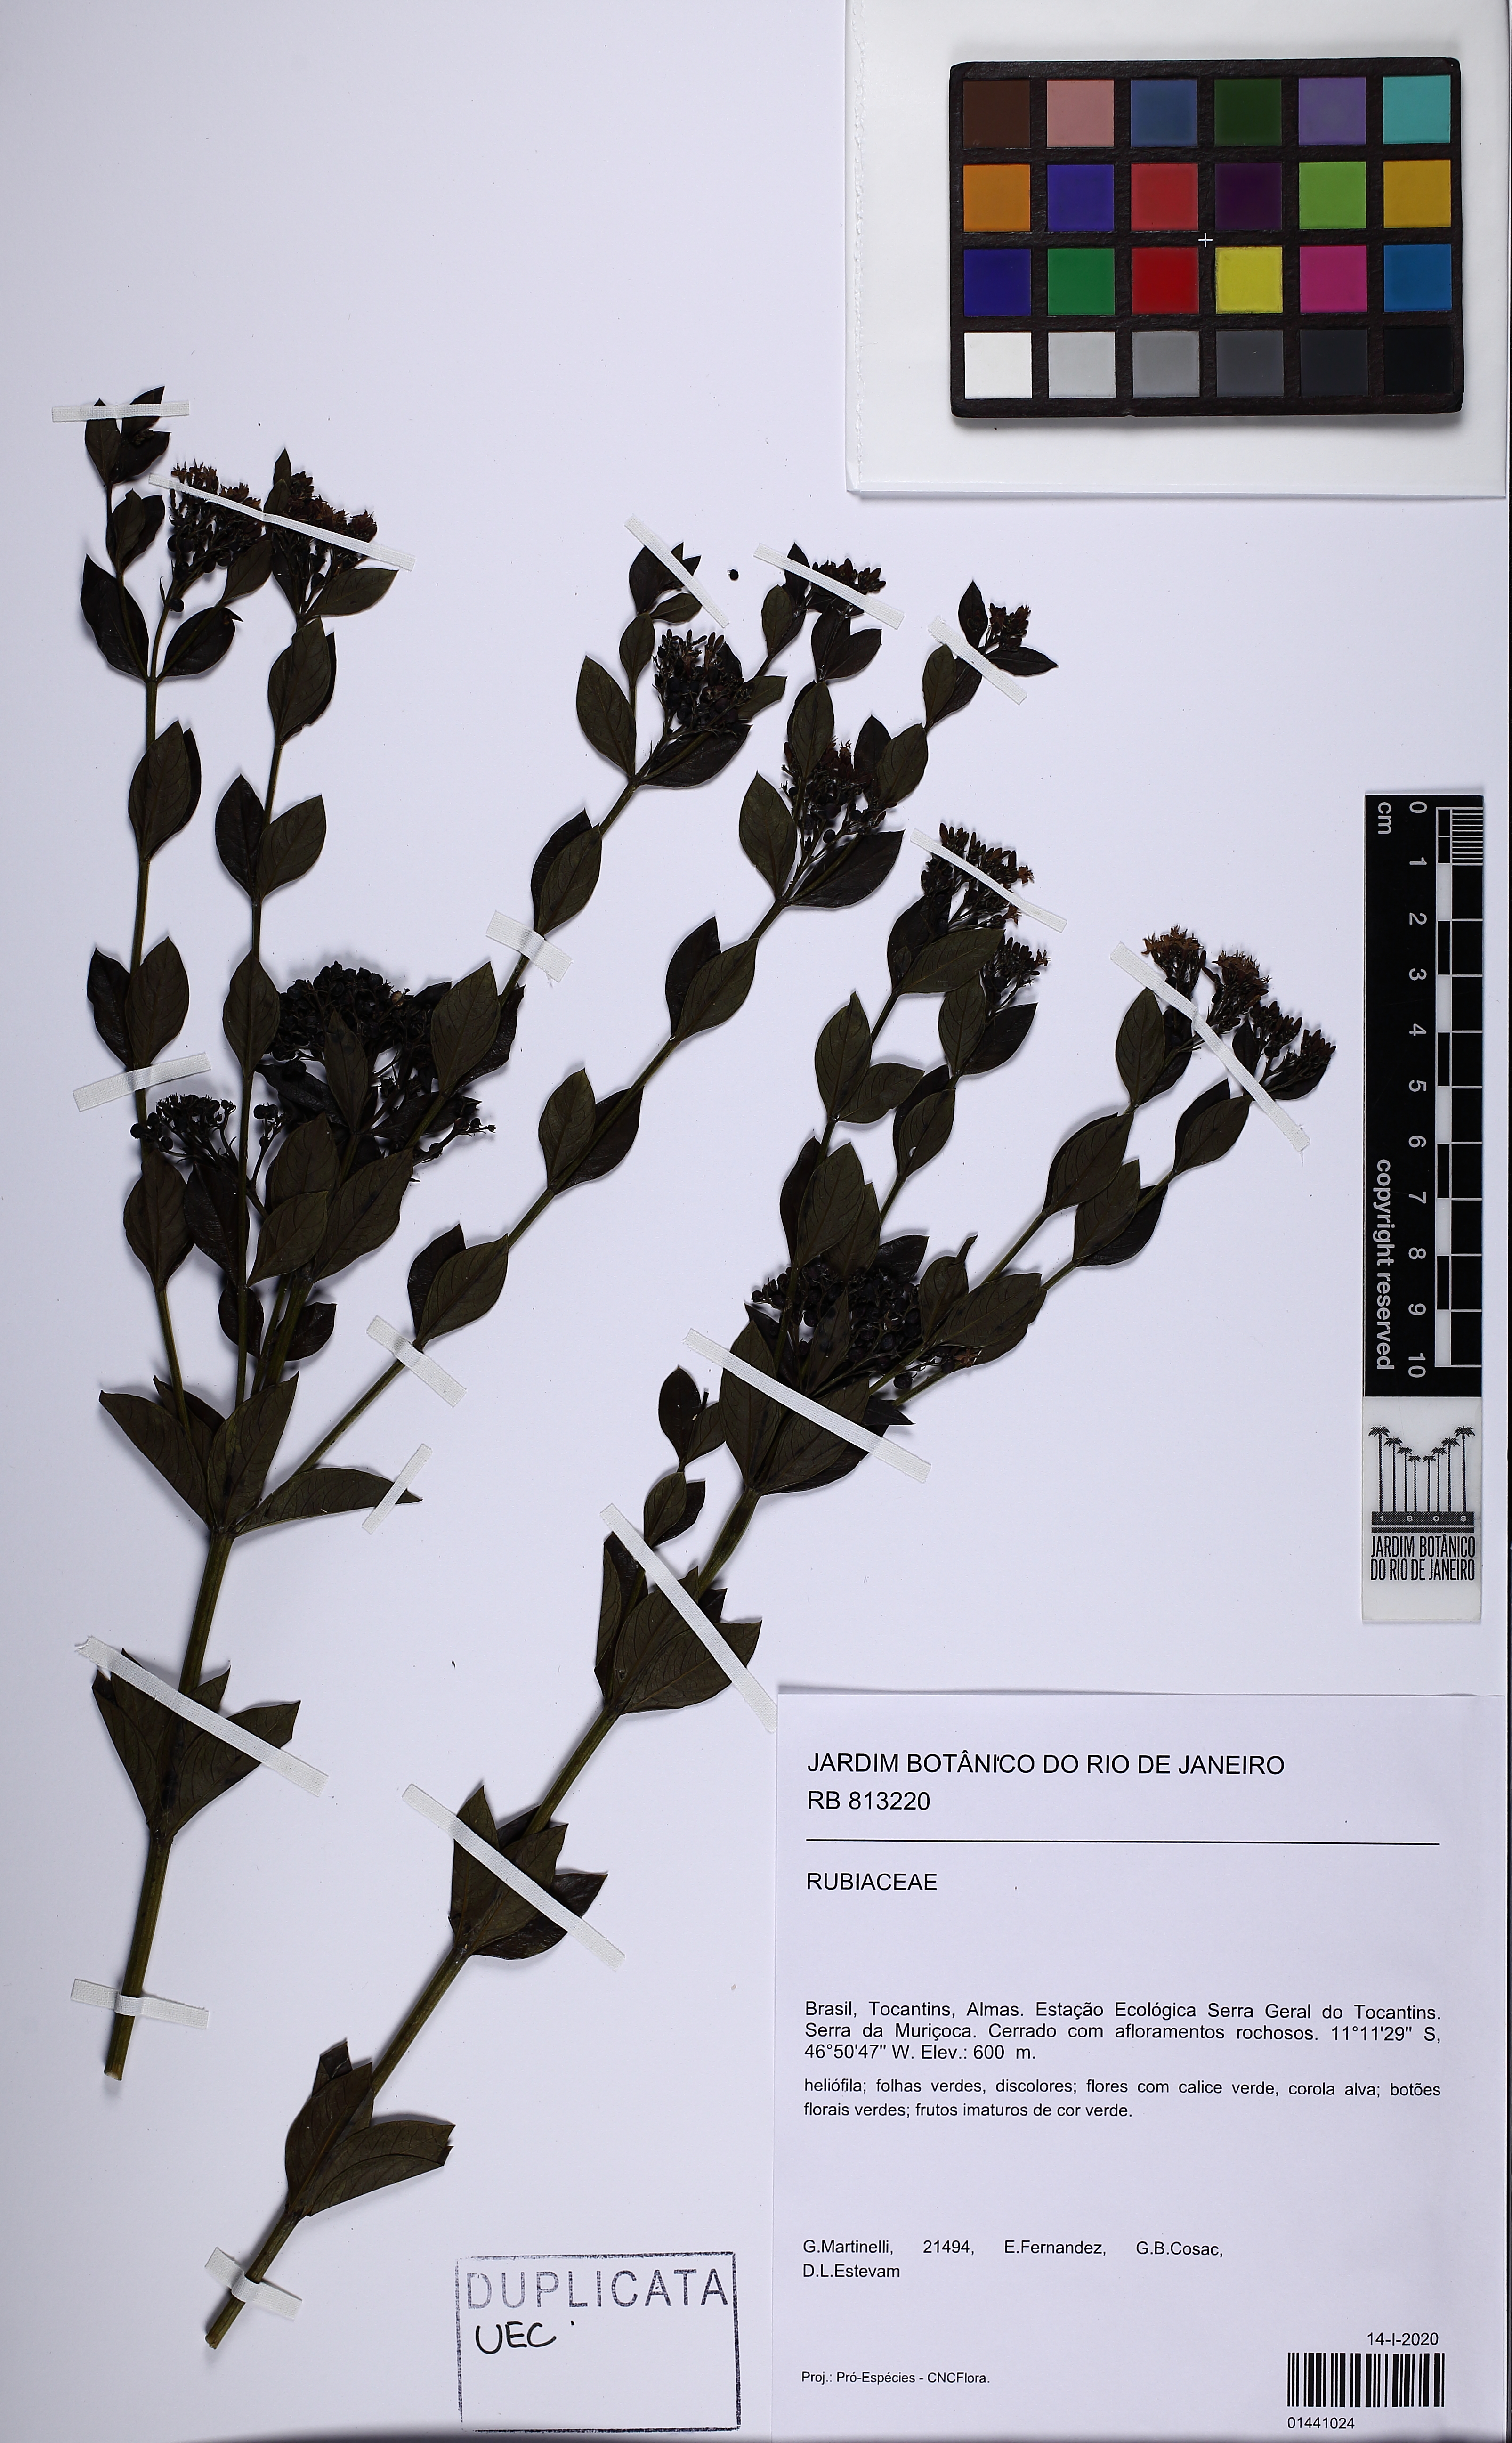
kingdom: Plantae
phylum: Tracheophyta
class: Magnoliopsida
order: Gentianales
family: Rubiaceae
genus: Declieuxia
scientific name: Declieuxia fruticosa
